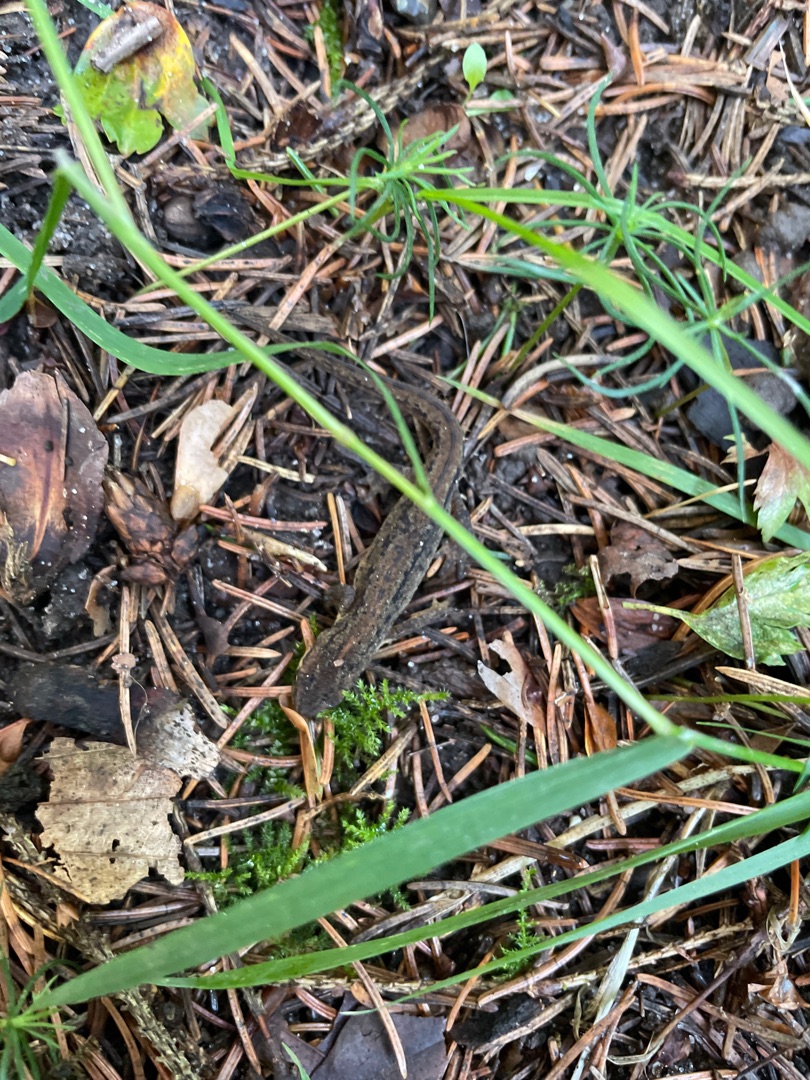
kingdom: Animalia
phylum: Chordata
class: Amphibia
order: Caudata
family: Salamandridae
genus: Lissotriton
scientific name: Lissotriton vulgaris
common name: Lille vandsalamander
